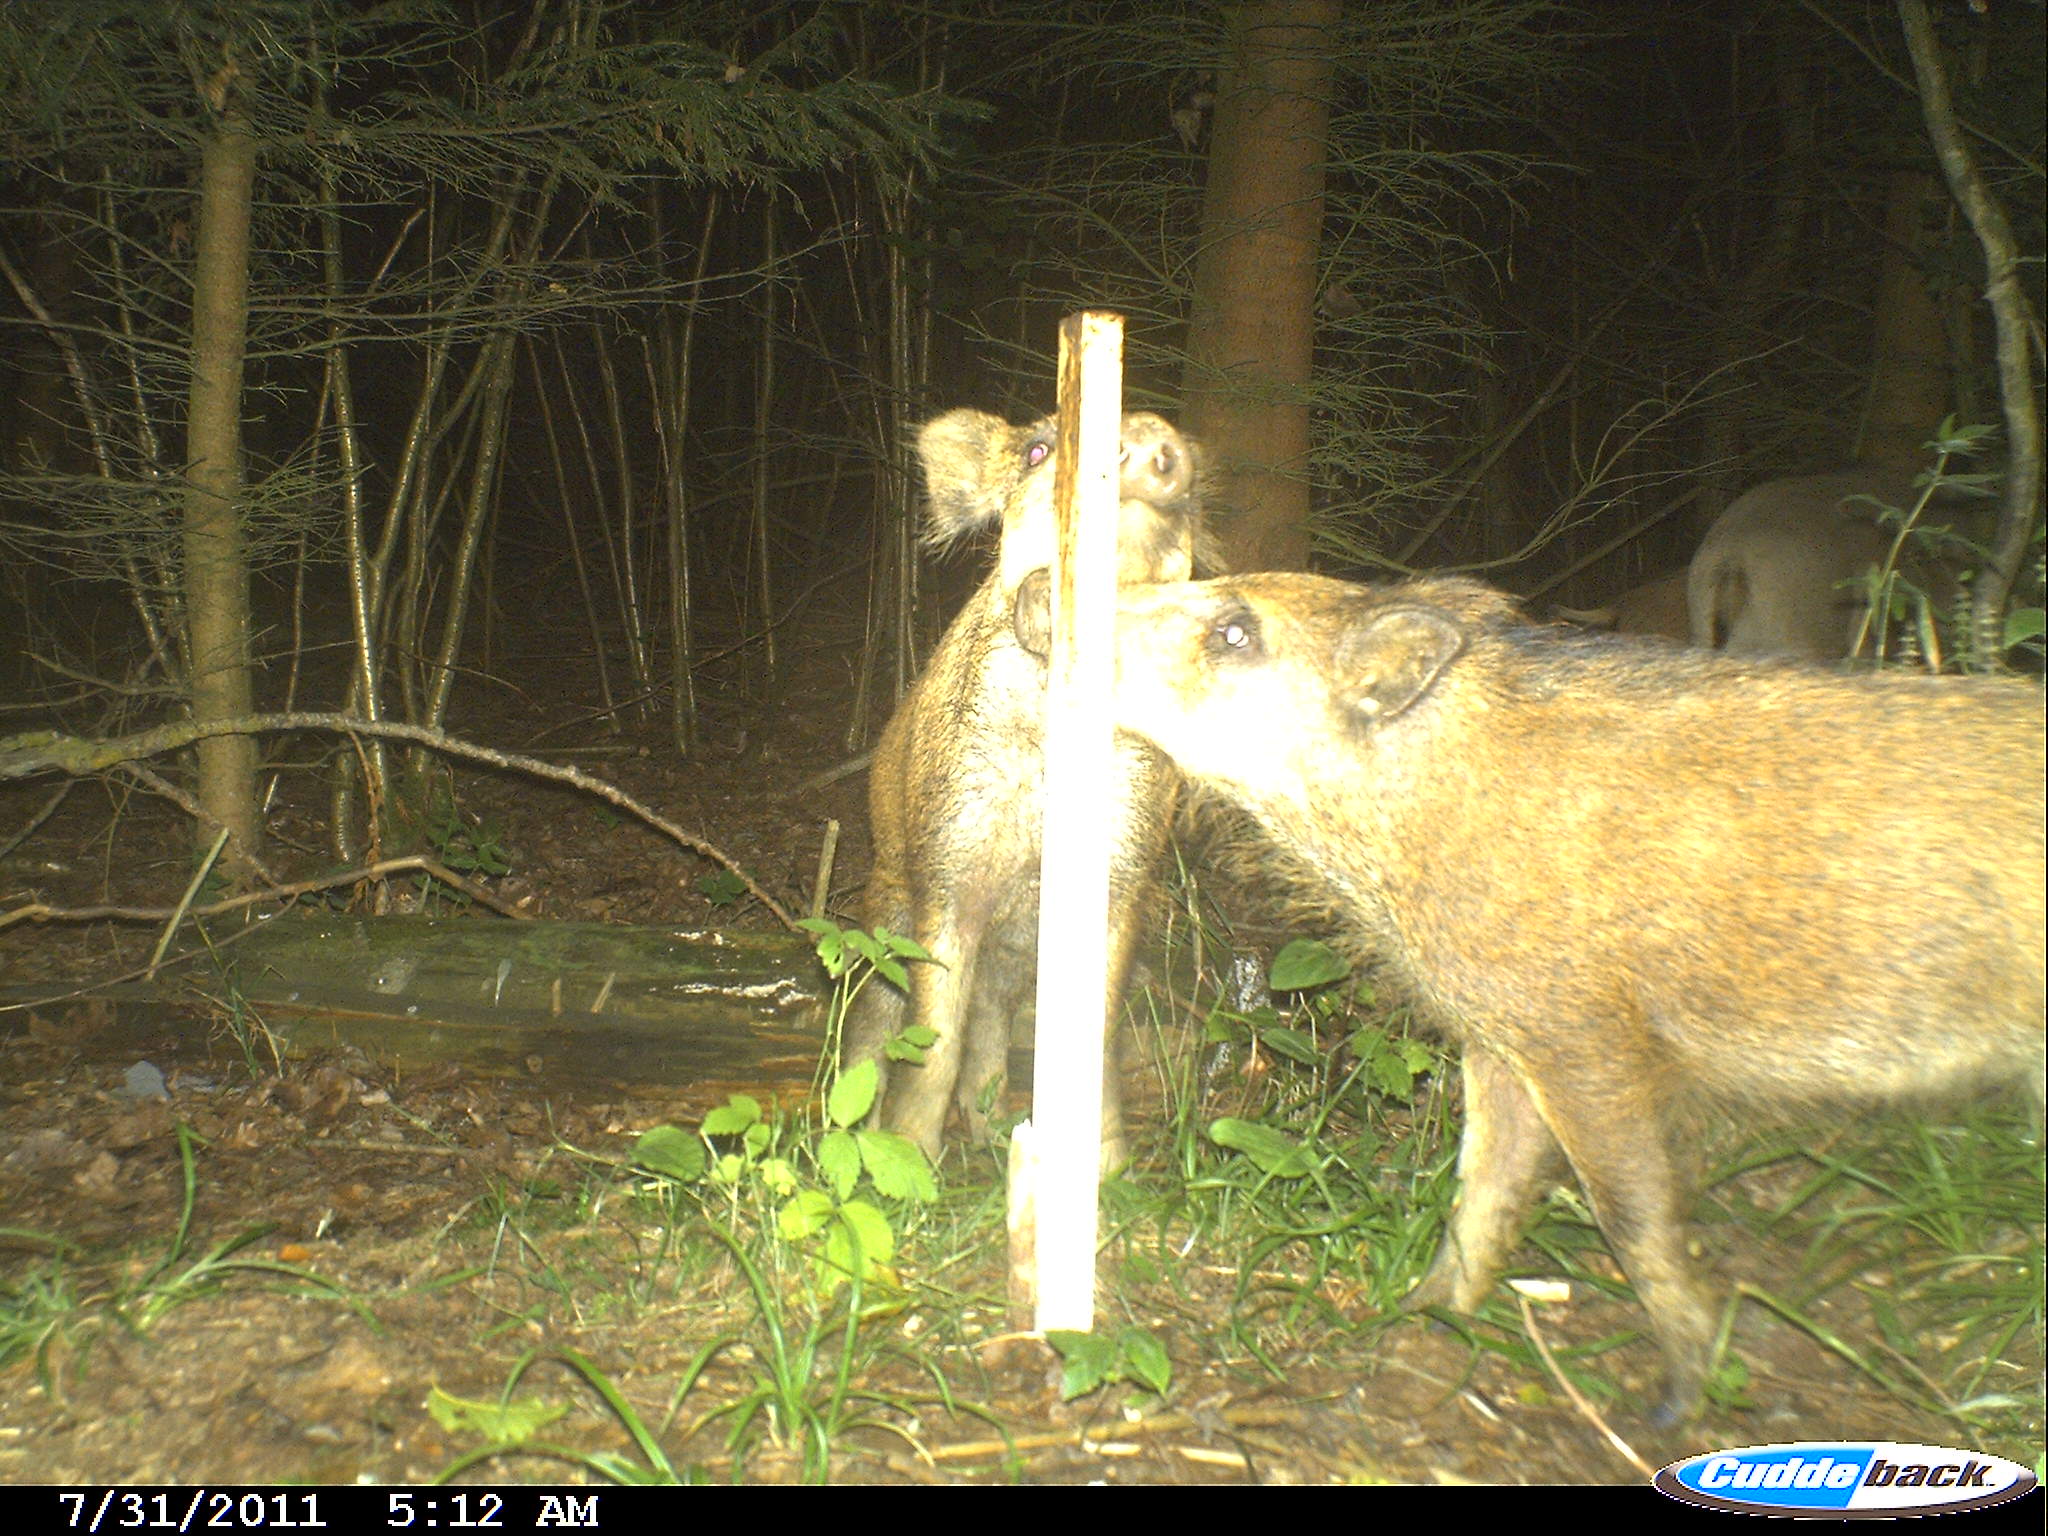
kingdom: Animalia
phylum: Chordata
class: Mammalia
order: Artiodactyla
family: Suidae
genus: Sus
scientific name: Sus scrofa
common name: Wild boar
